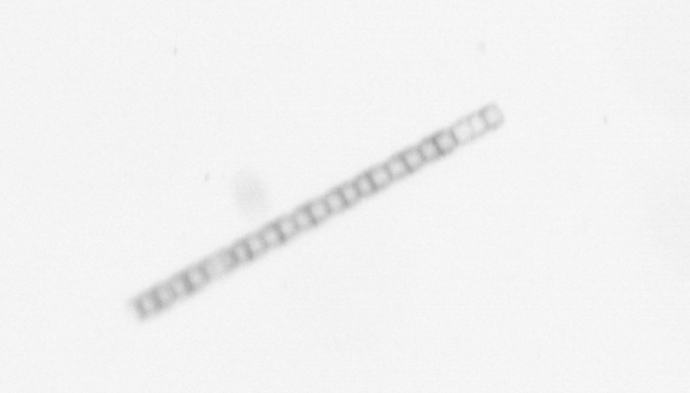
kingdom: Chromista
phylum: Ochrophyta
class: Bacillariophyceae
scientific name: Bacillariophyceae
